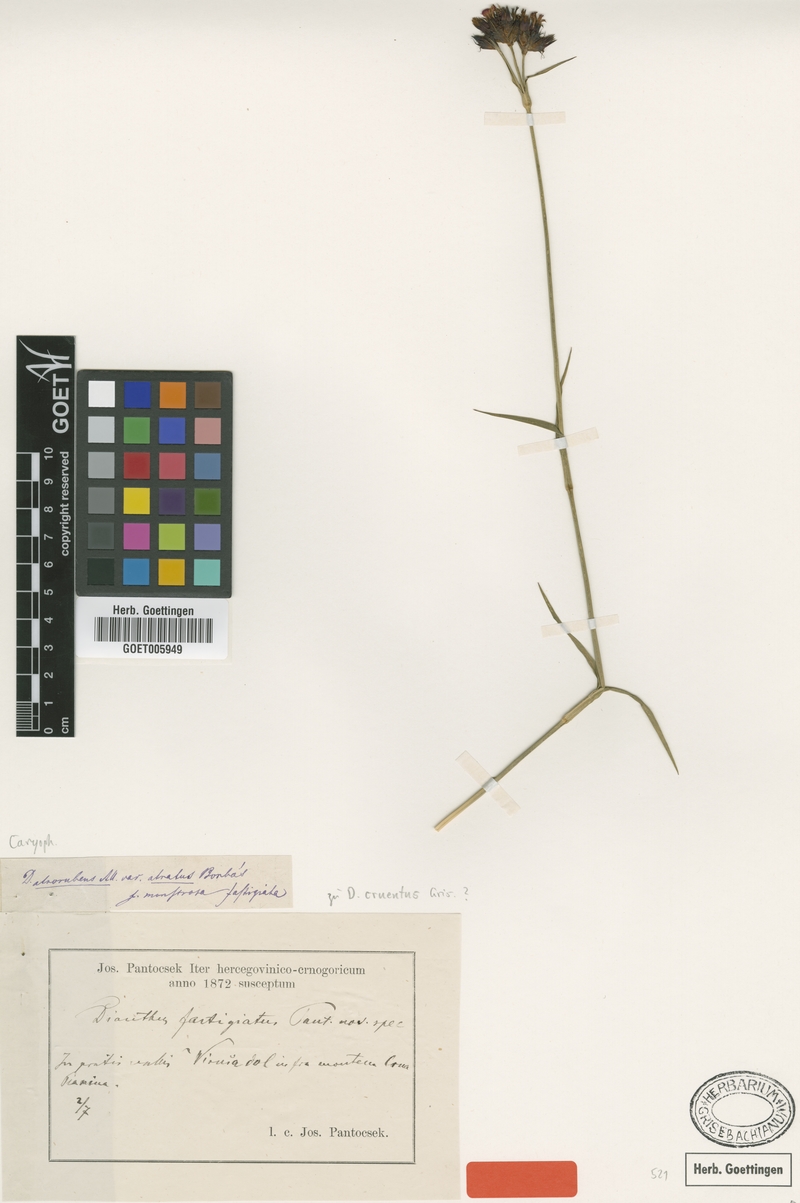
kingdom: Plantae
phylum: Tracheophyta
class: Magnoliopsida
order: Caryophyllales
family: Caryophyllaceae
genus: Dianthus
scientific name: Dianthus cruentus
